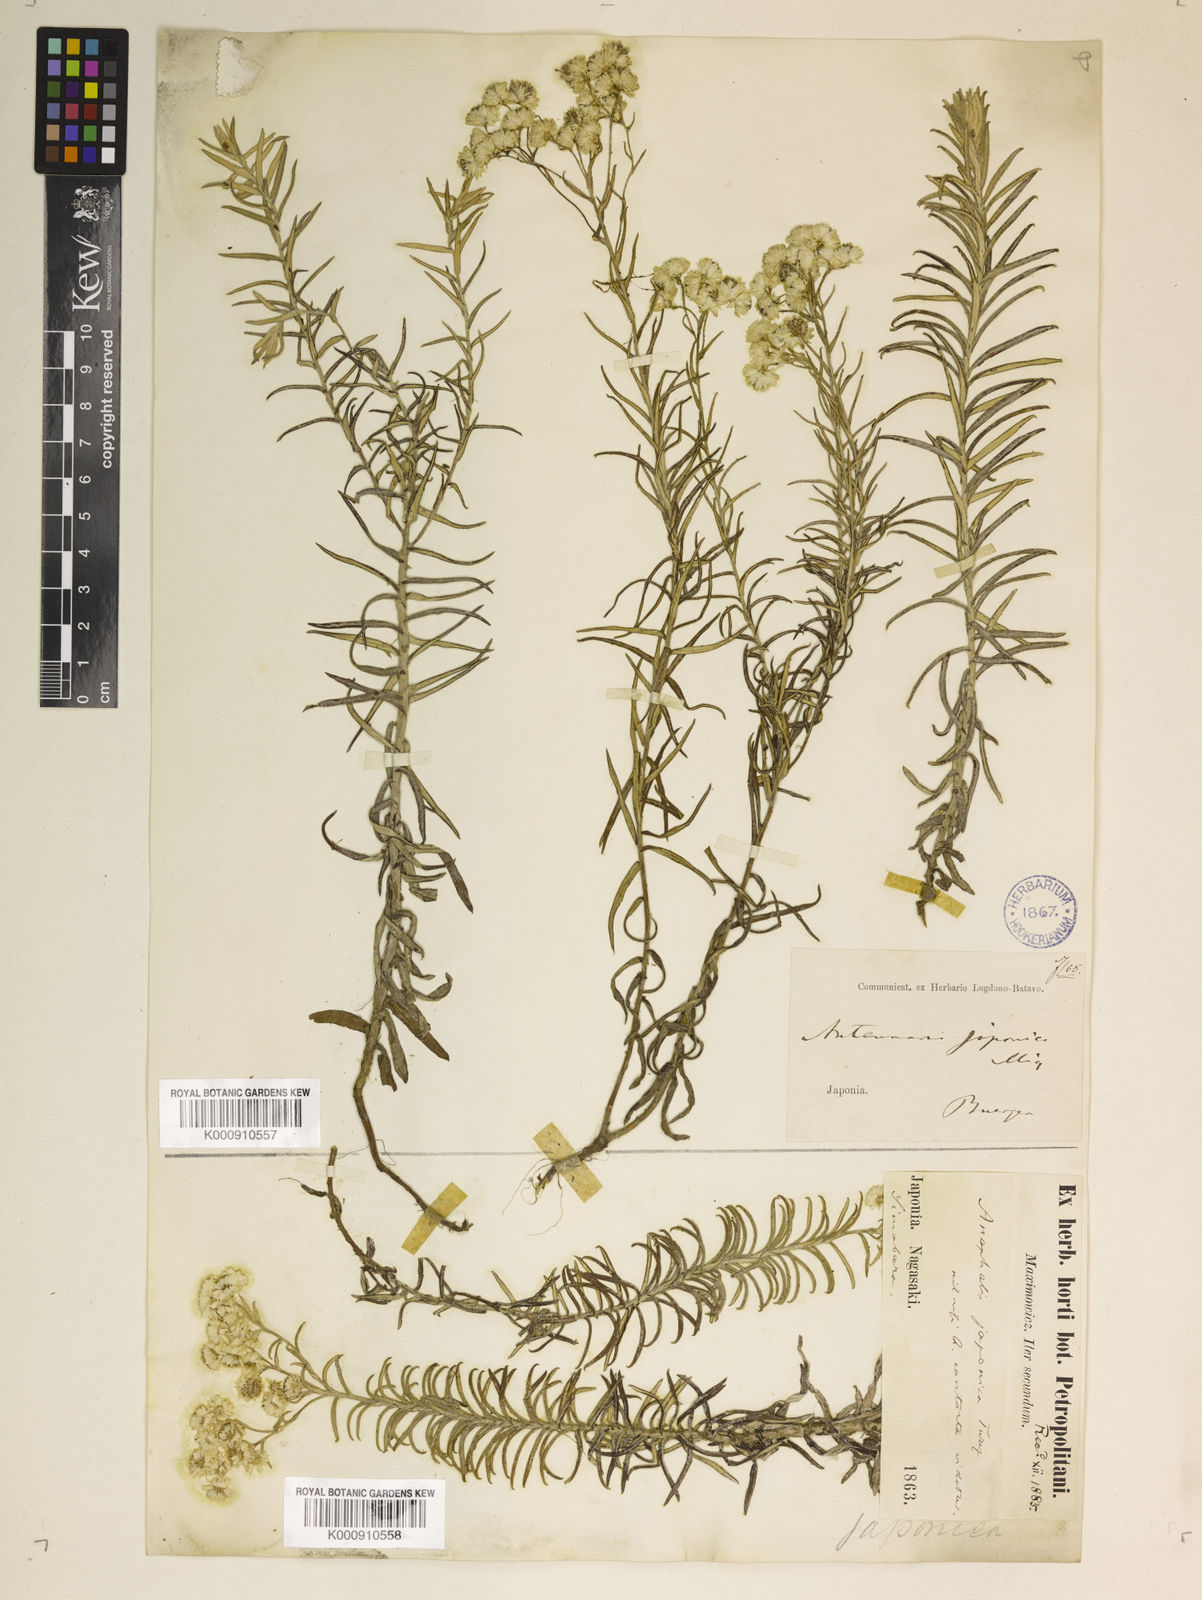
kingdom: Plantae
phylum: Tracheophyta
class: Magnoliopsida
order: Asterales
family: Asteraceae
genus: Anaphalis
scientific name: Anaphalis
